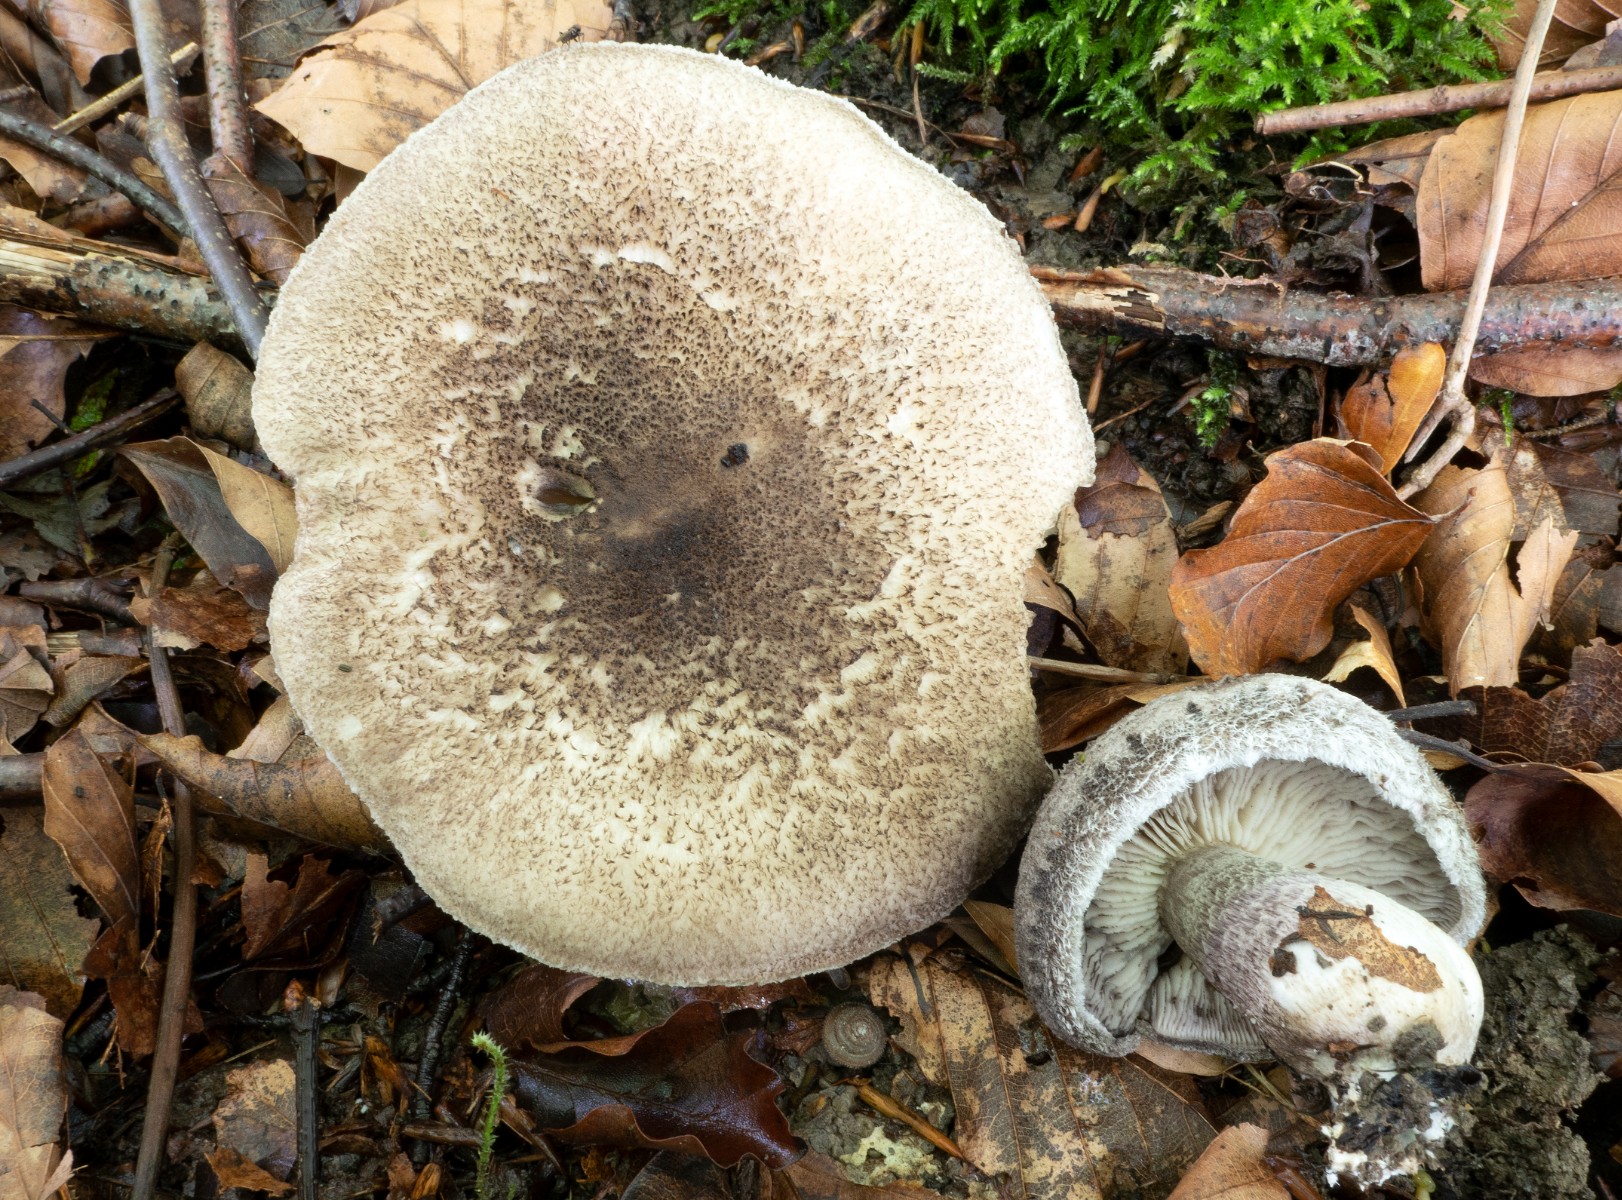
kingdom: Fungi
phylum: Basidiomycota
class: Agaricomycetes
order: Agaricales
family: Tricholomataceae
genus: Tricholoma
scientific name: Tricholoma atrosquamosum
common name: sortskællet ridderhat
